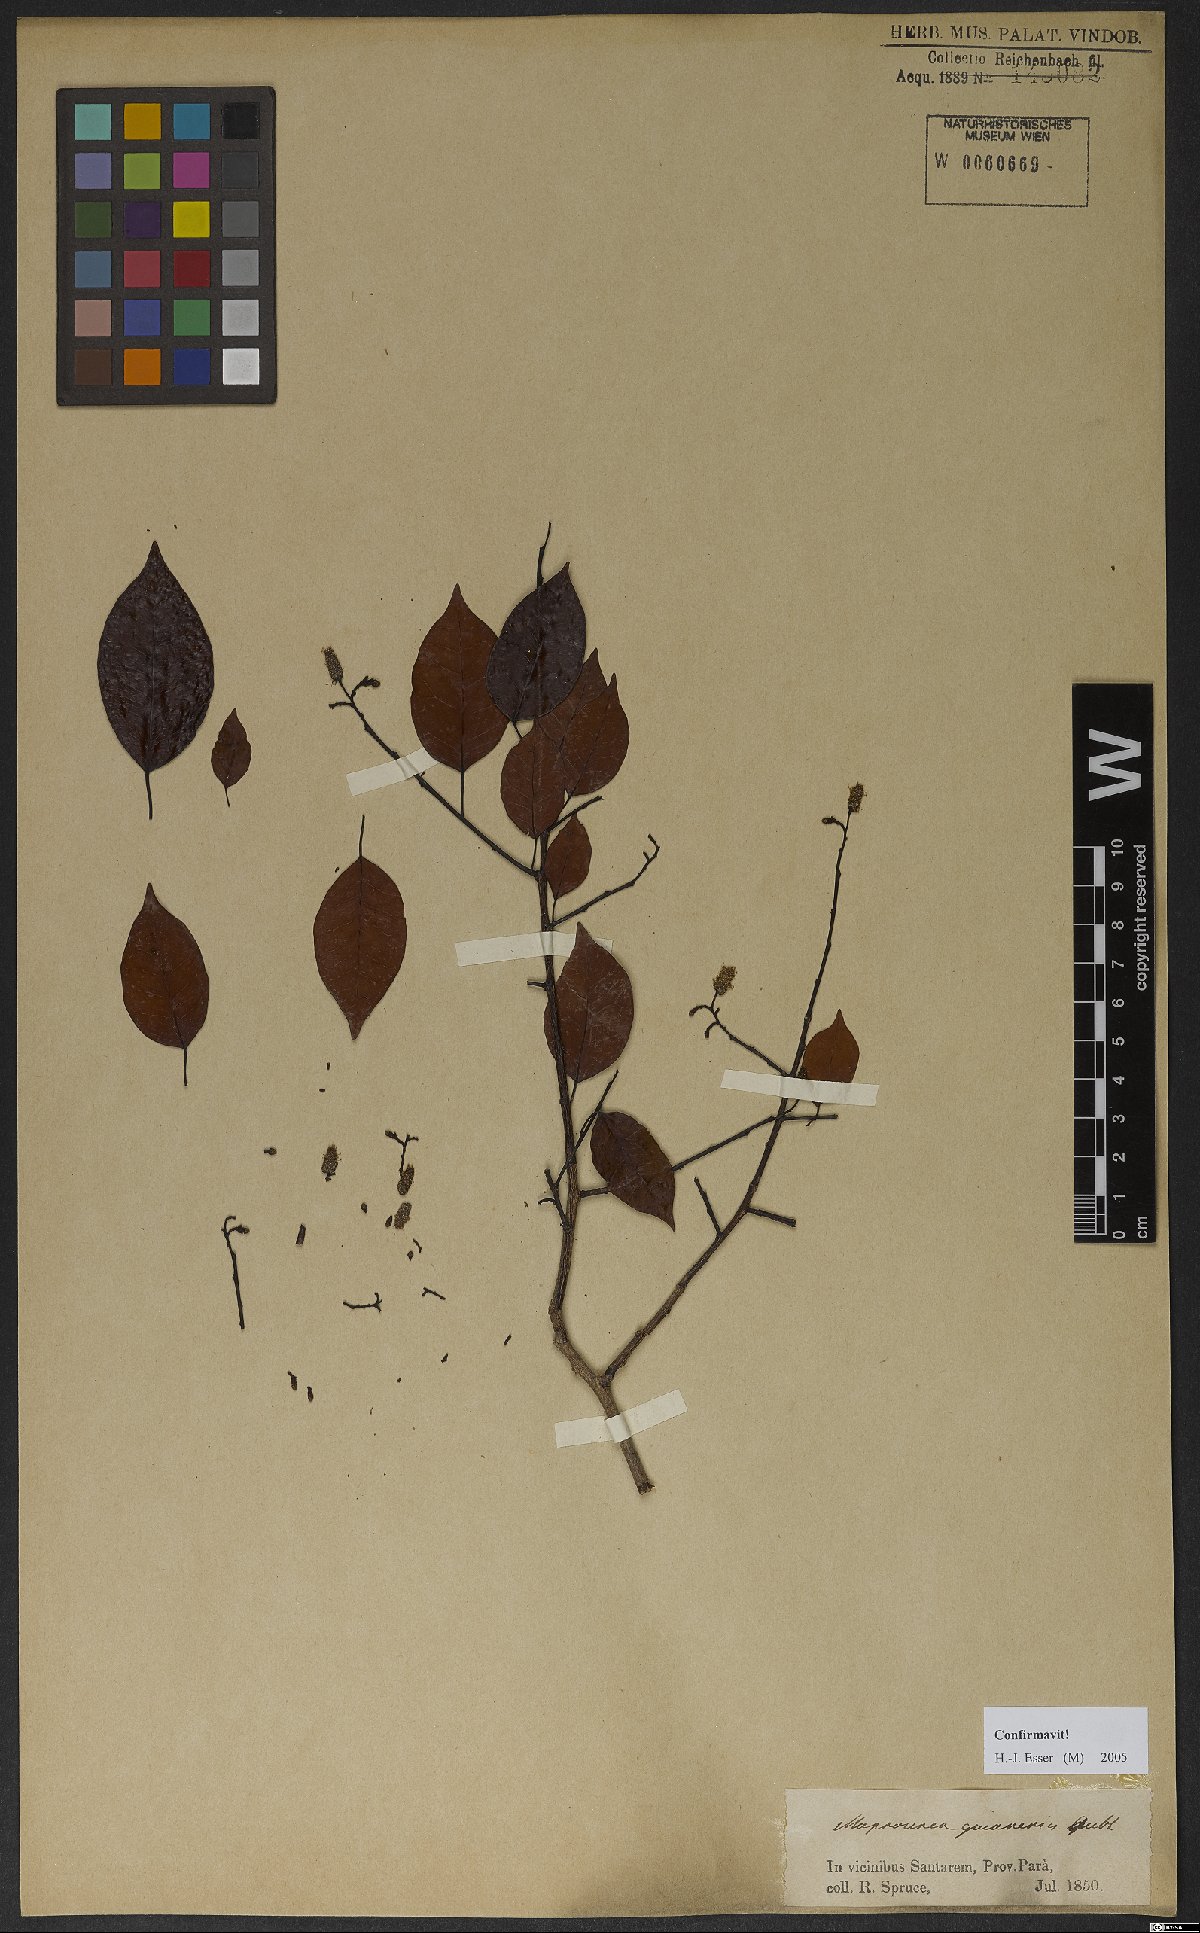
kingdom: Plantae
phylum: Tracheophyta
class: Magnoliopsida
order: Malpighiales
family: Euphorbiaceae
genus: Maprounea
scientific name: Maprounea guianensis
